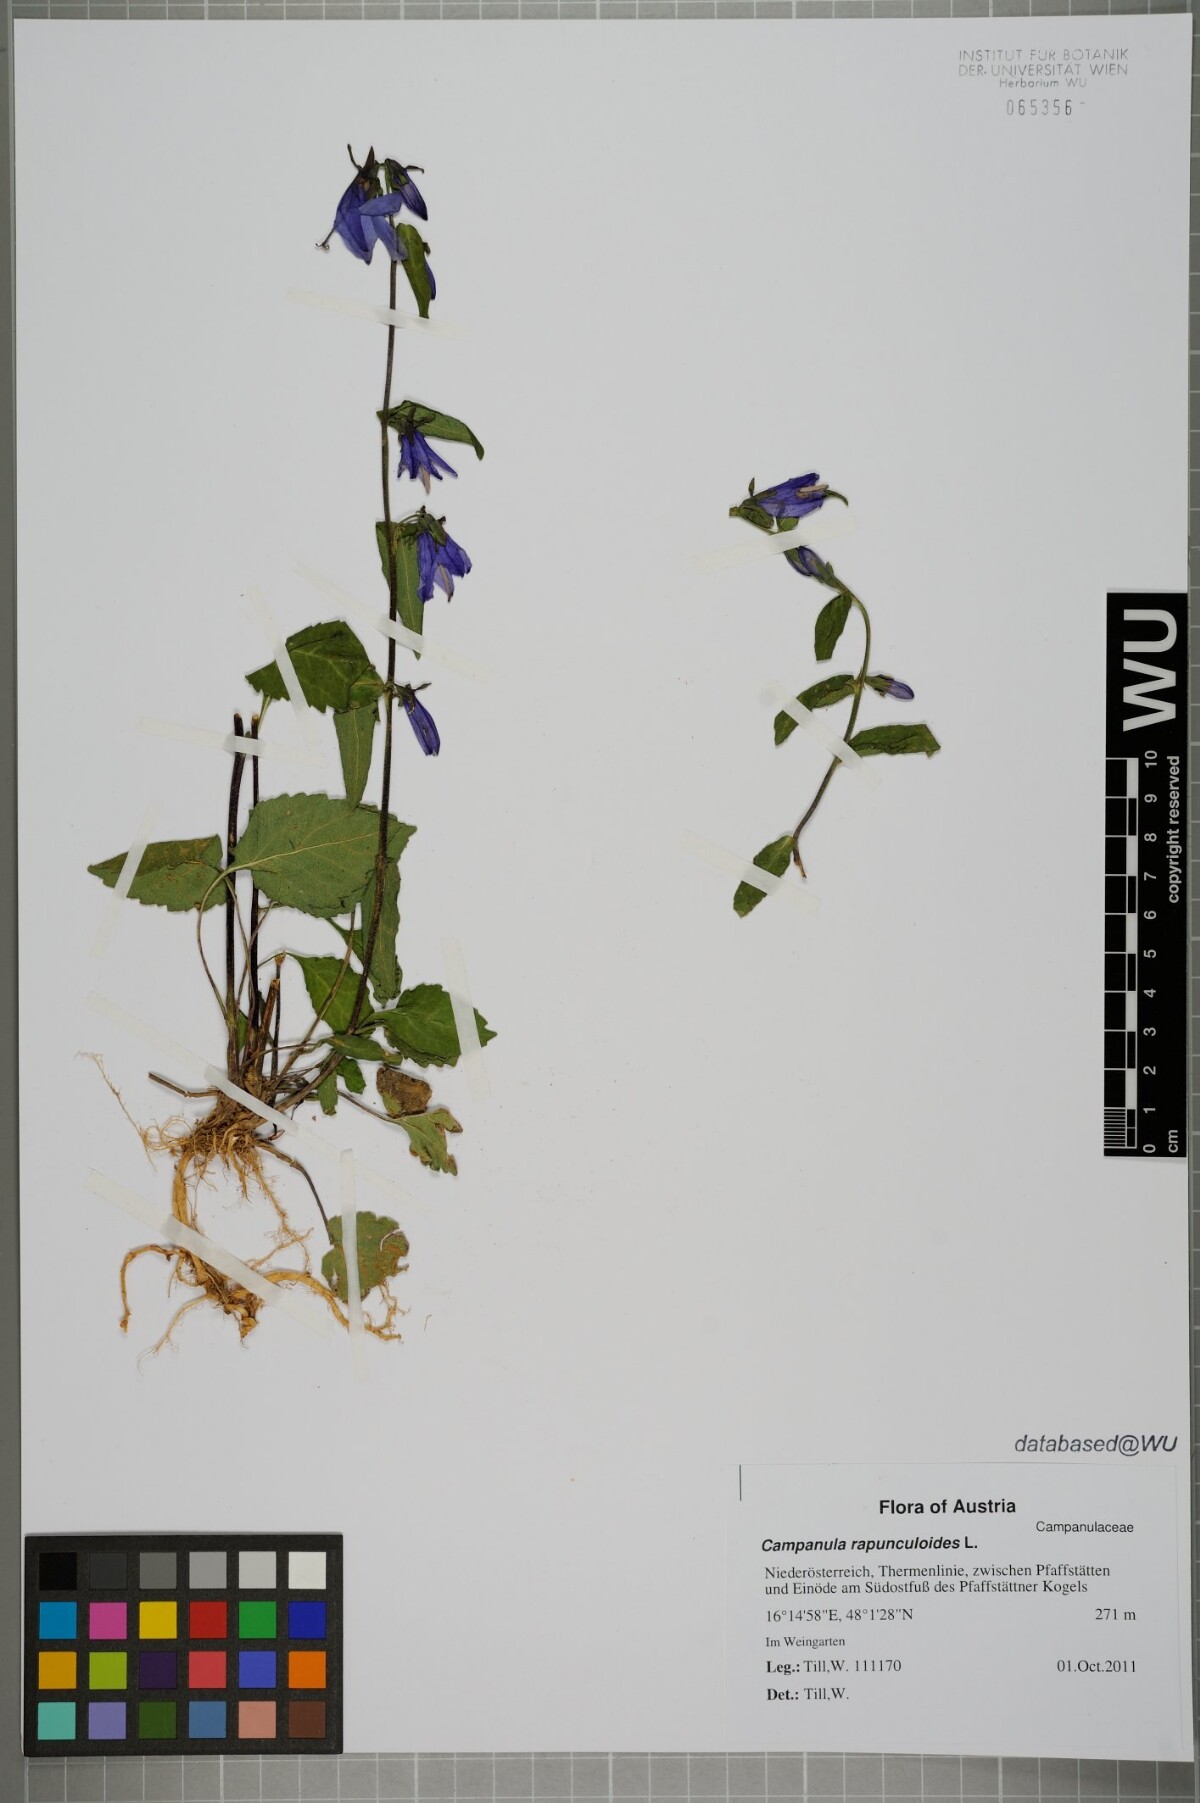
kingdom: Plantae
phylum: Tracheophyta
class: Magnoliopsida
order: Asterales
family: Campanulaceae
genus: Campanula
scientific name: Campanula rapunculoides
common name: Creeping bellflower
